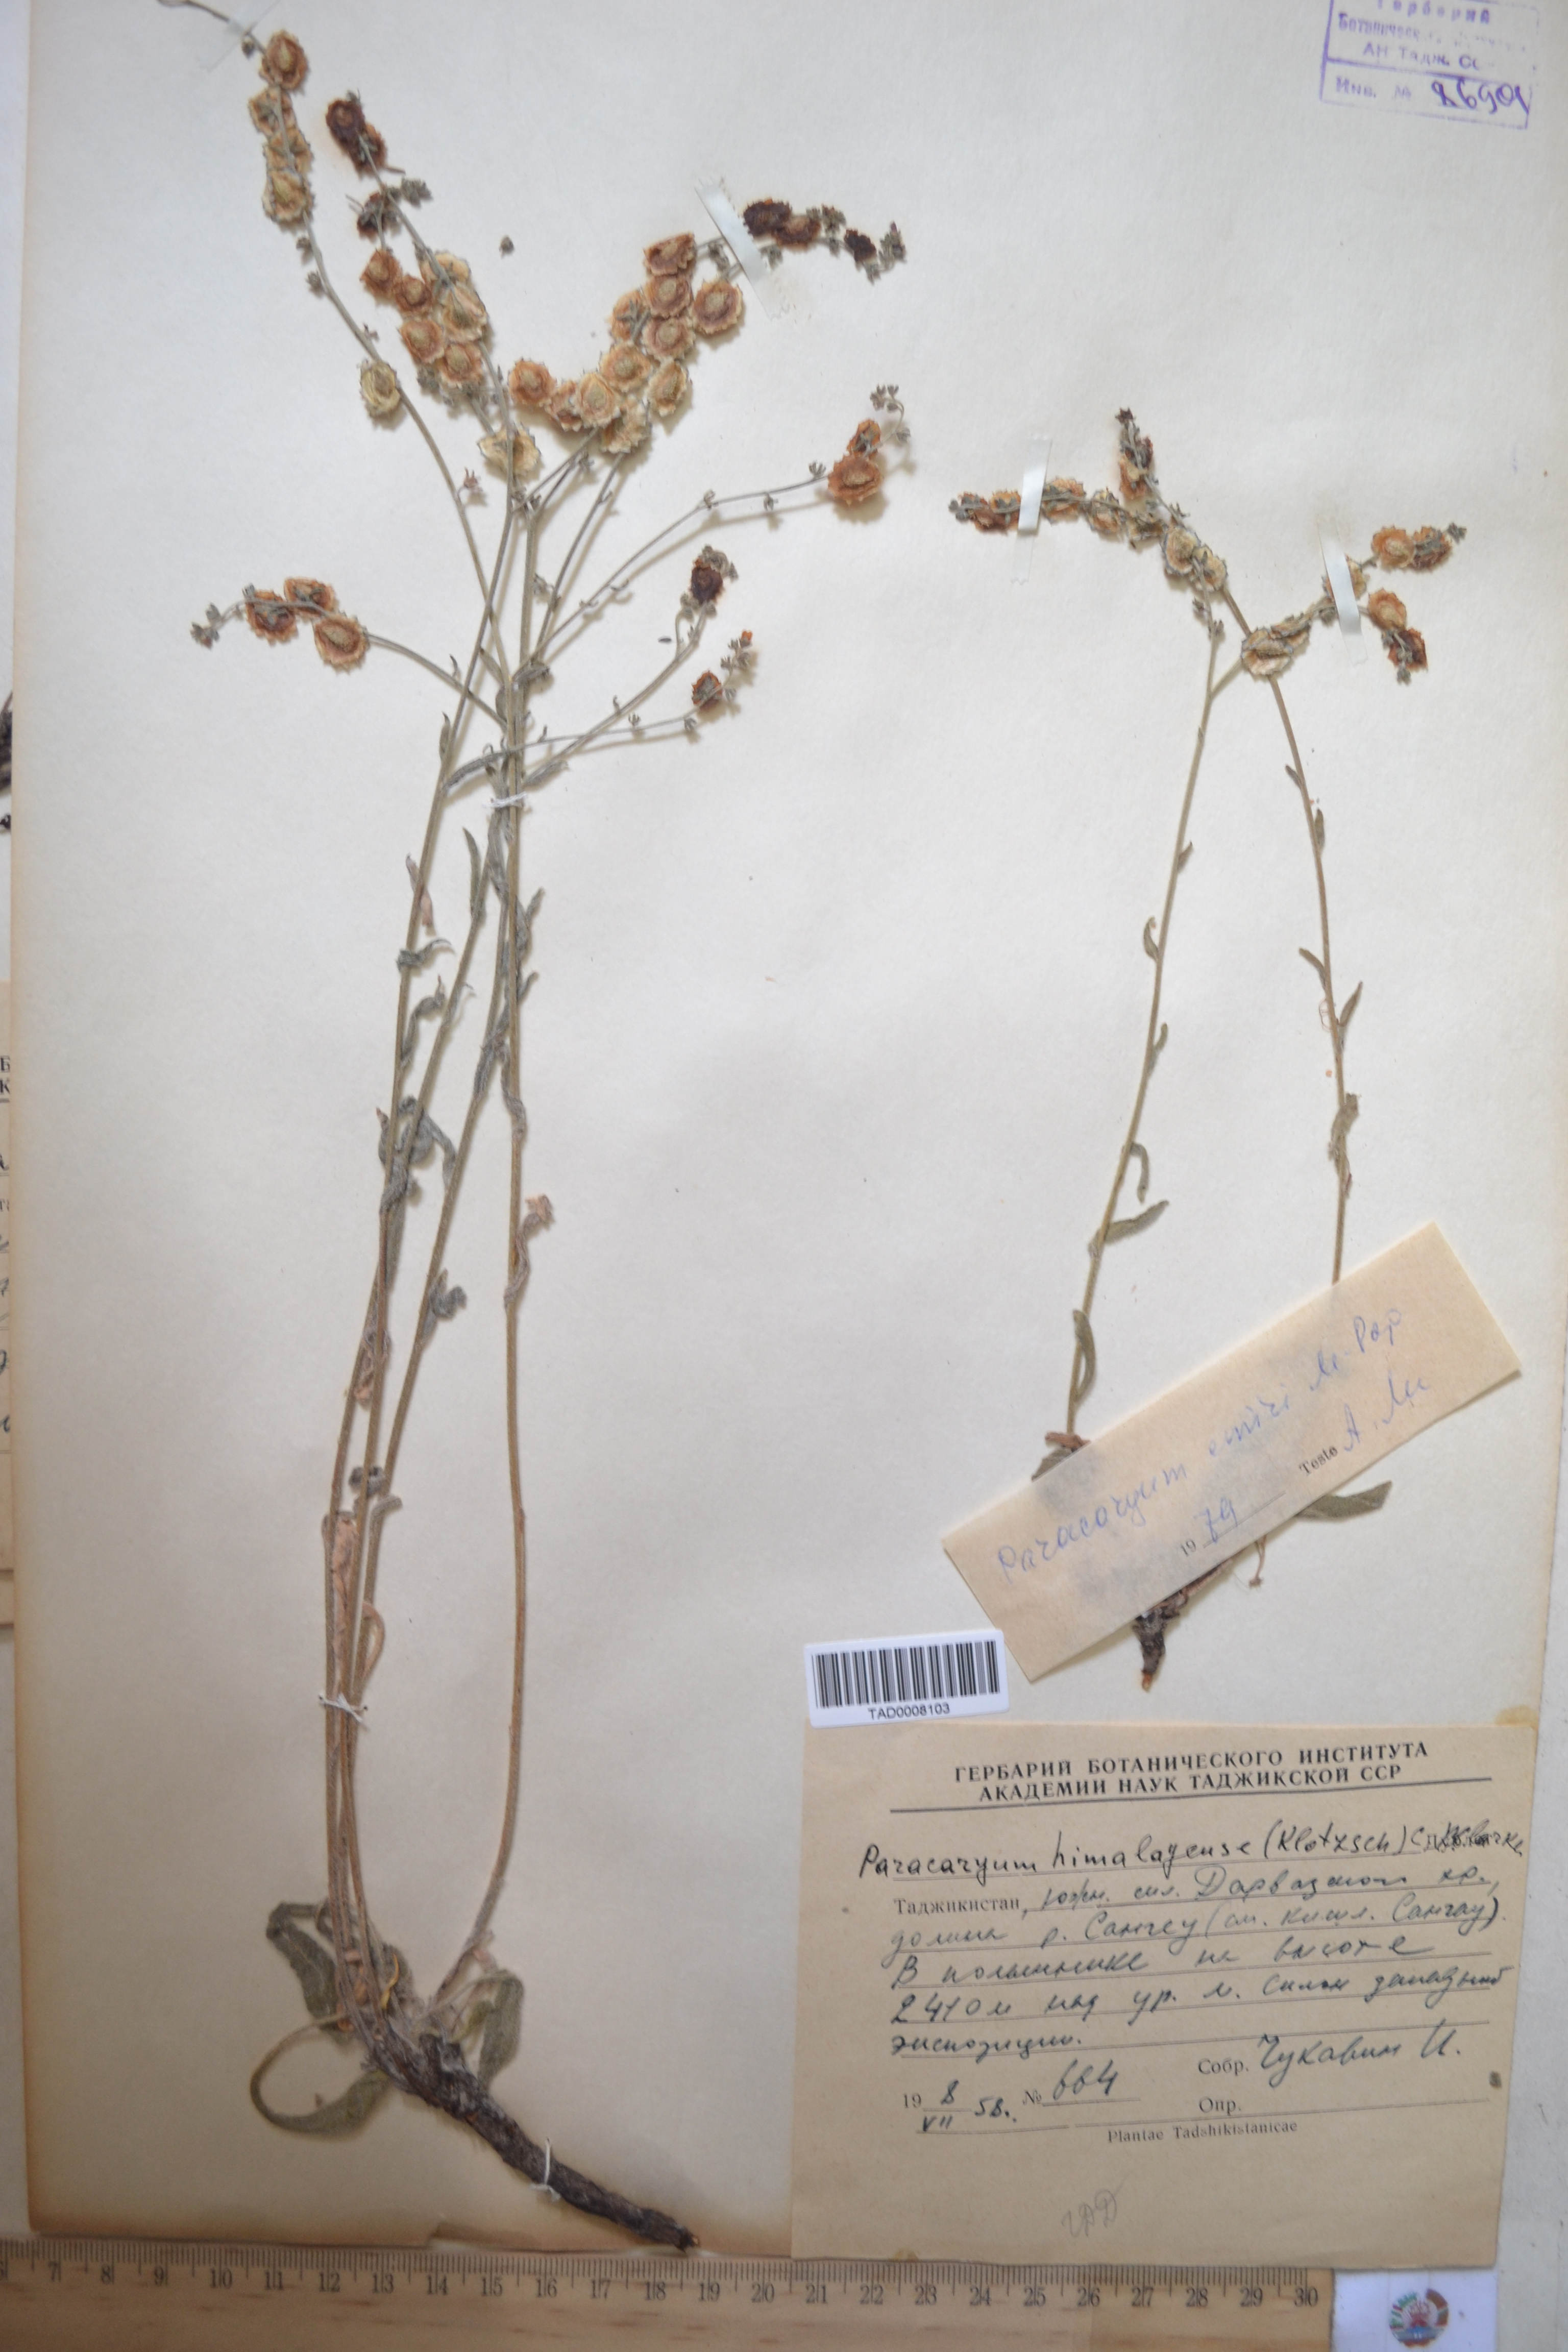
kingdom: Plantae
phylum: Tracheophyta
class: Magnoliopsida
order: Boraginales
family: Boraginaceae
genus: Paracaryum
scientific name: Paracaryum himalayense
